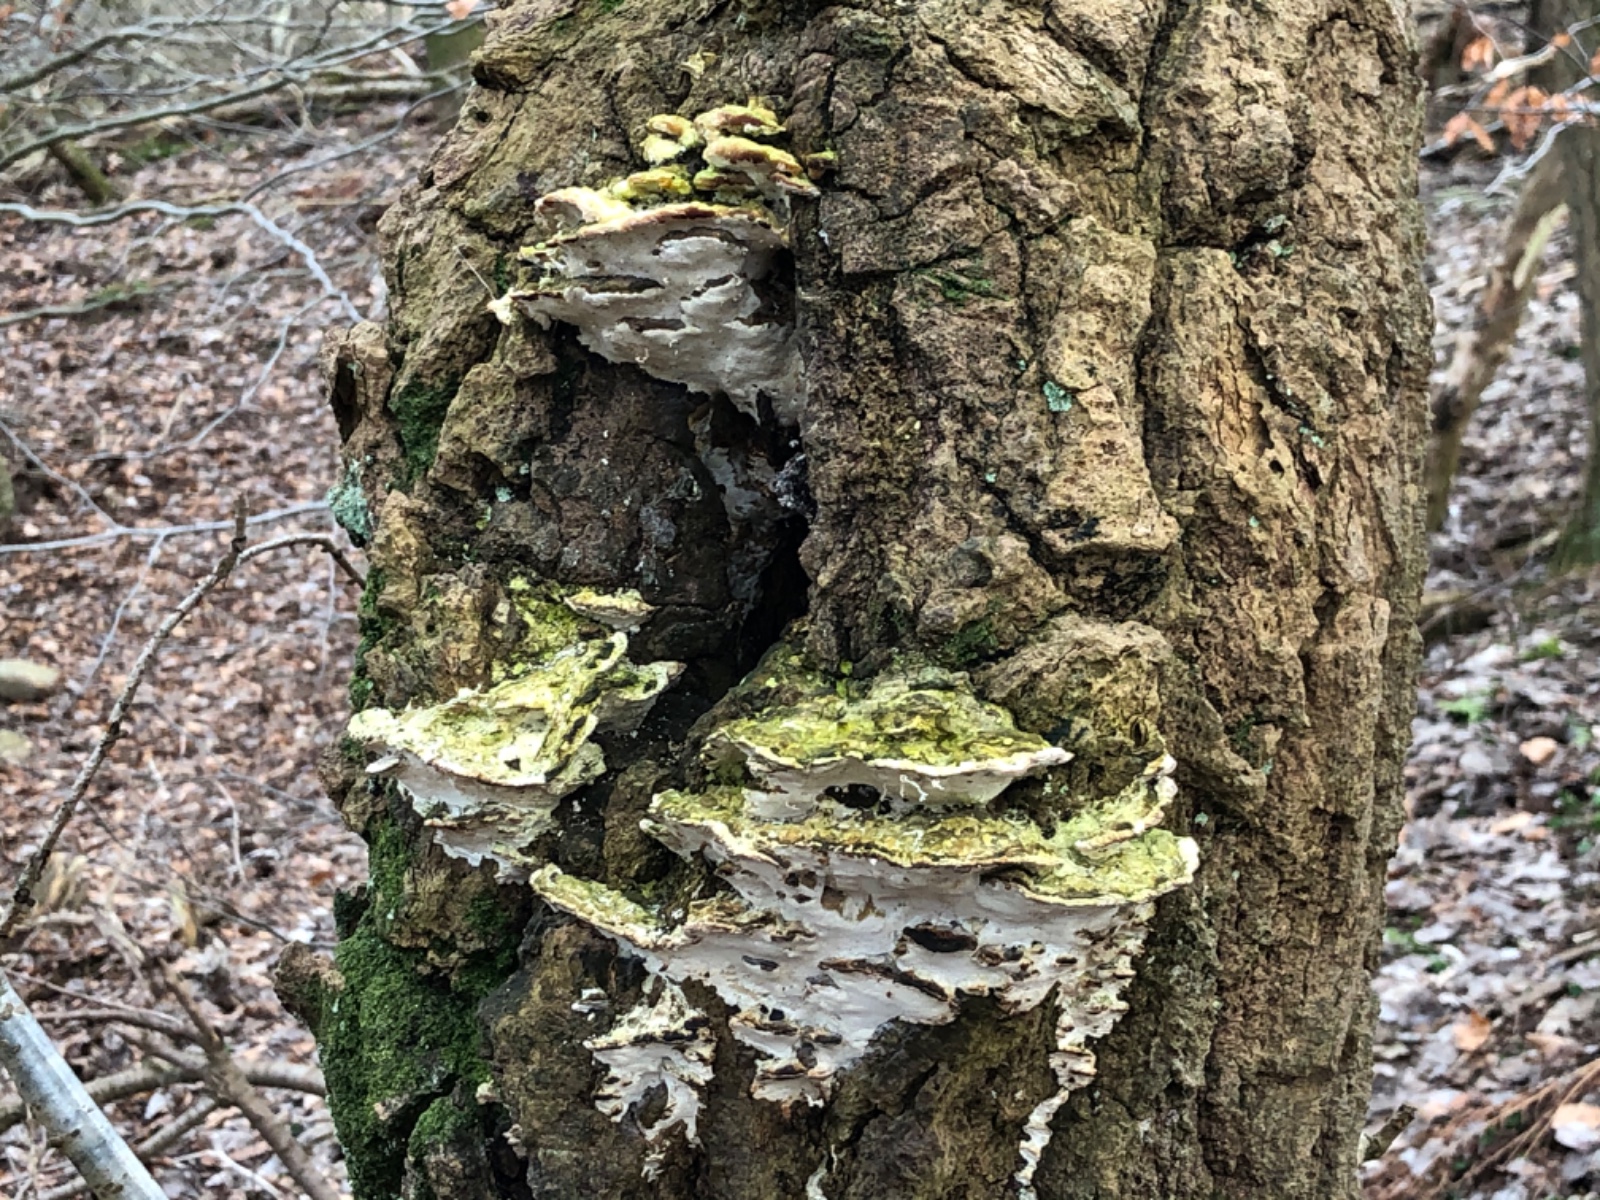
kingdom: Fungi
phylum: Basidiomycota
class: Agaricomycetes
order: Hymenochaetales
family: Oxyporaceae
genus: Oxyporus
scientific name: Oxyporus populinus
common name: sammenvokset trylleporesvamp
